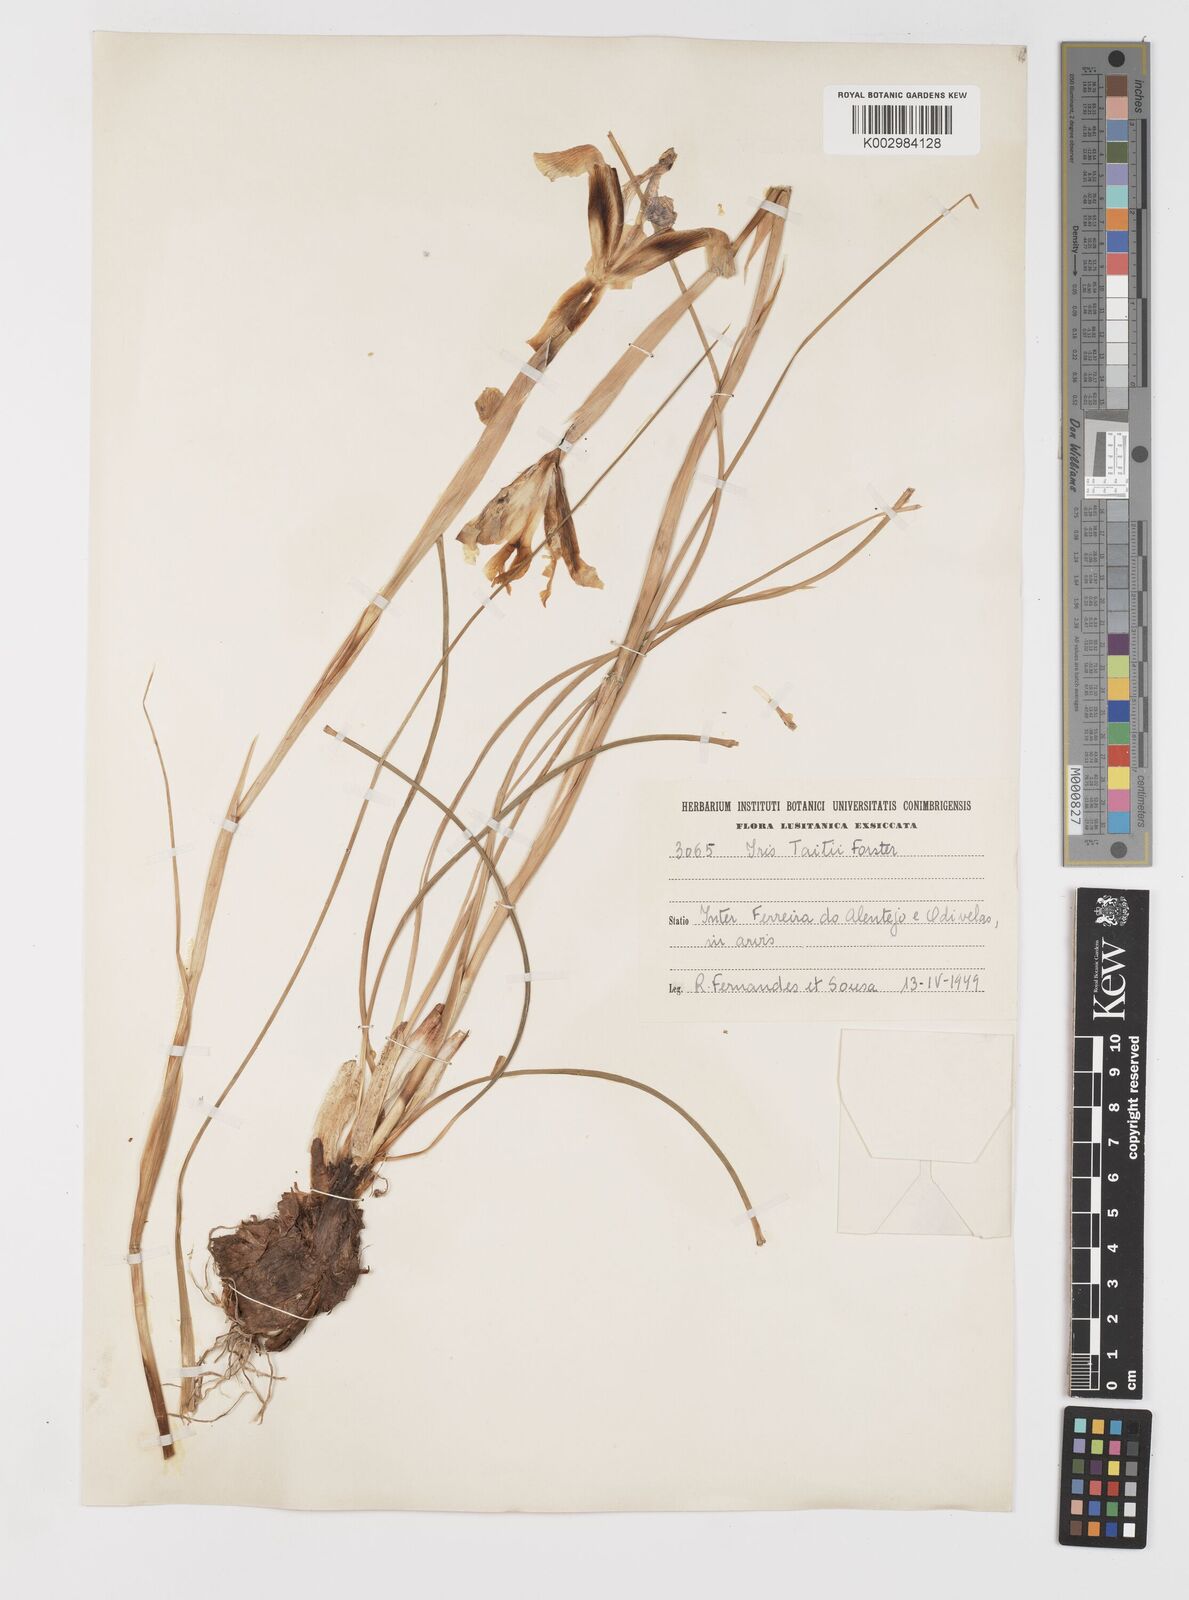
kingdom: Plantae
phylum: Tracheophyta
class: Liliopsida
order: Asparagales
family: Iridaceae
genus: Iris
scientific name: Iris xiphium
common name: Spanish iris
